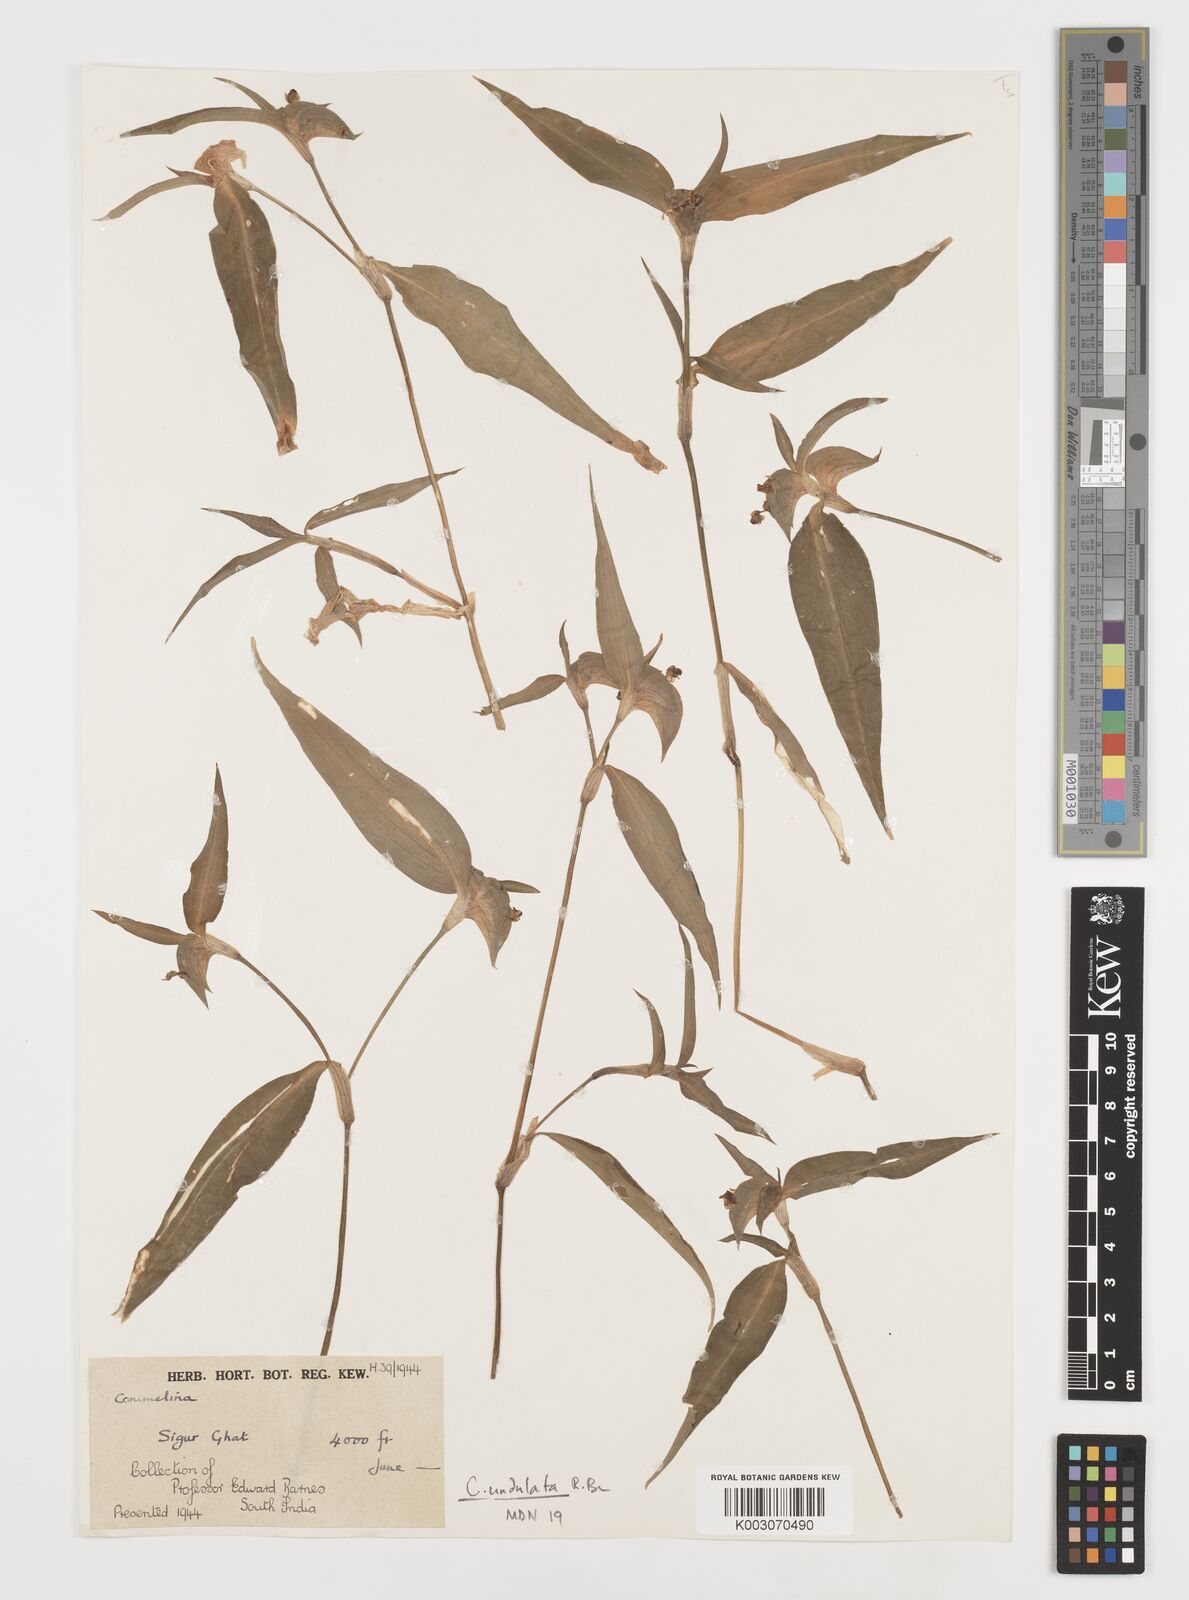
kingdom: Plantae
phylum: Tracheophyta
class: Liliopsida
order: Commelinales
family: Commelinaceae
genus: Commelina
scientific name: Commelina
